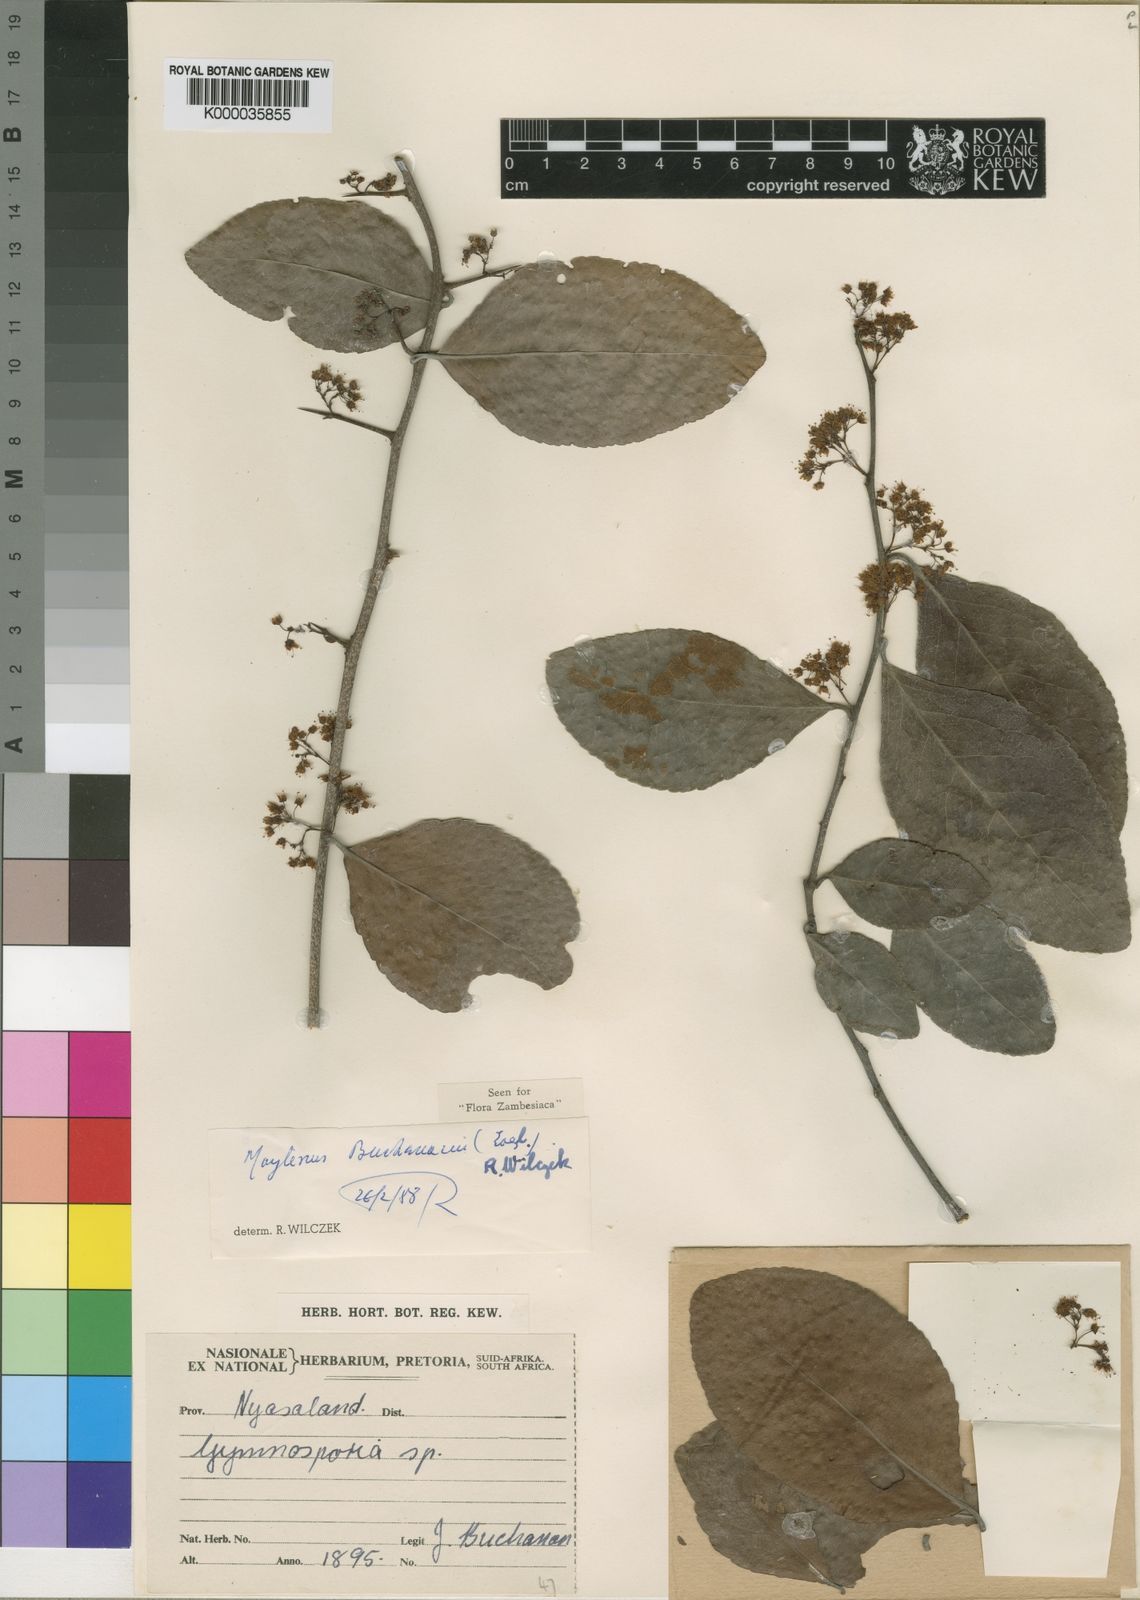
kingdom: Plantae
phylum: Tracheophyta
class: Magnoliopsida
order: Celastrales
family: Celastraceae
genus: Gymnosporia
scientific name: Gymnosporia buchananii
